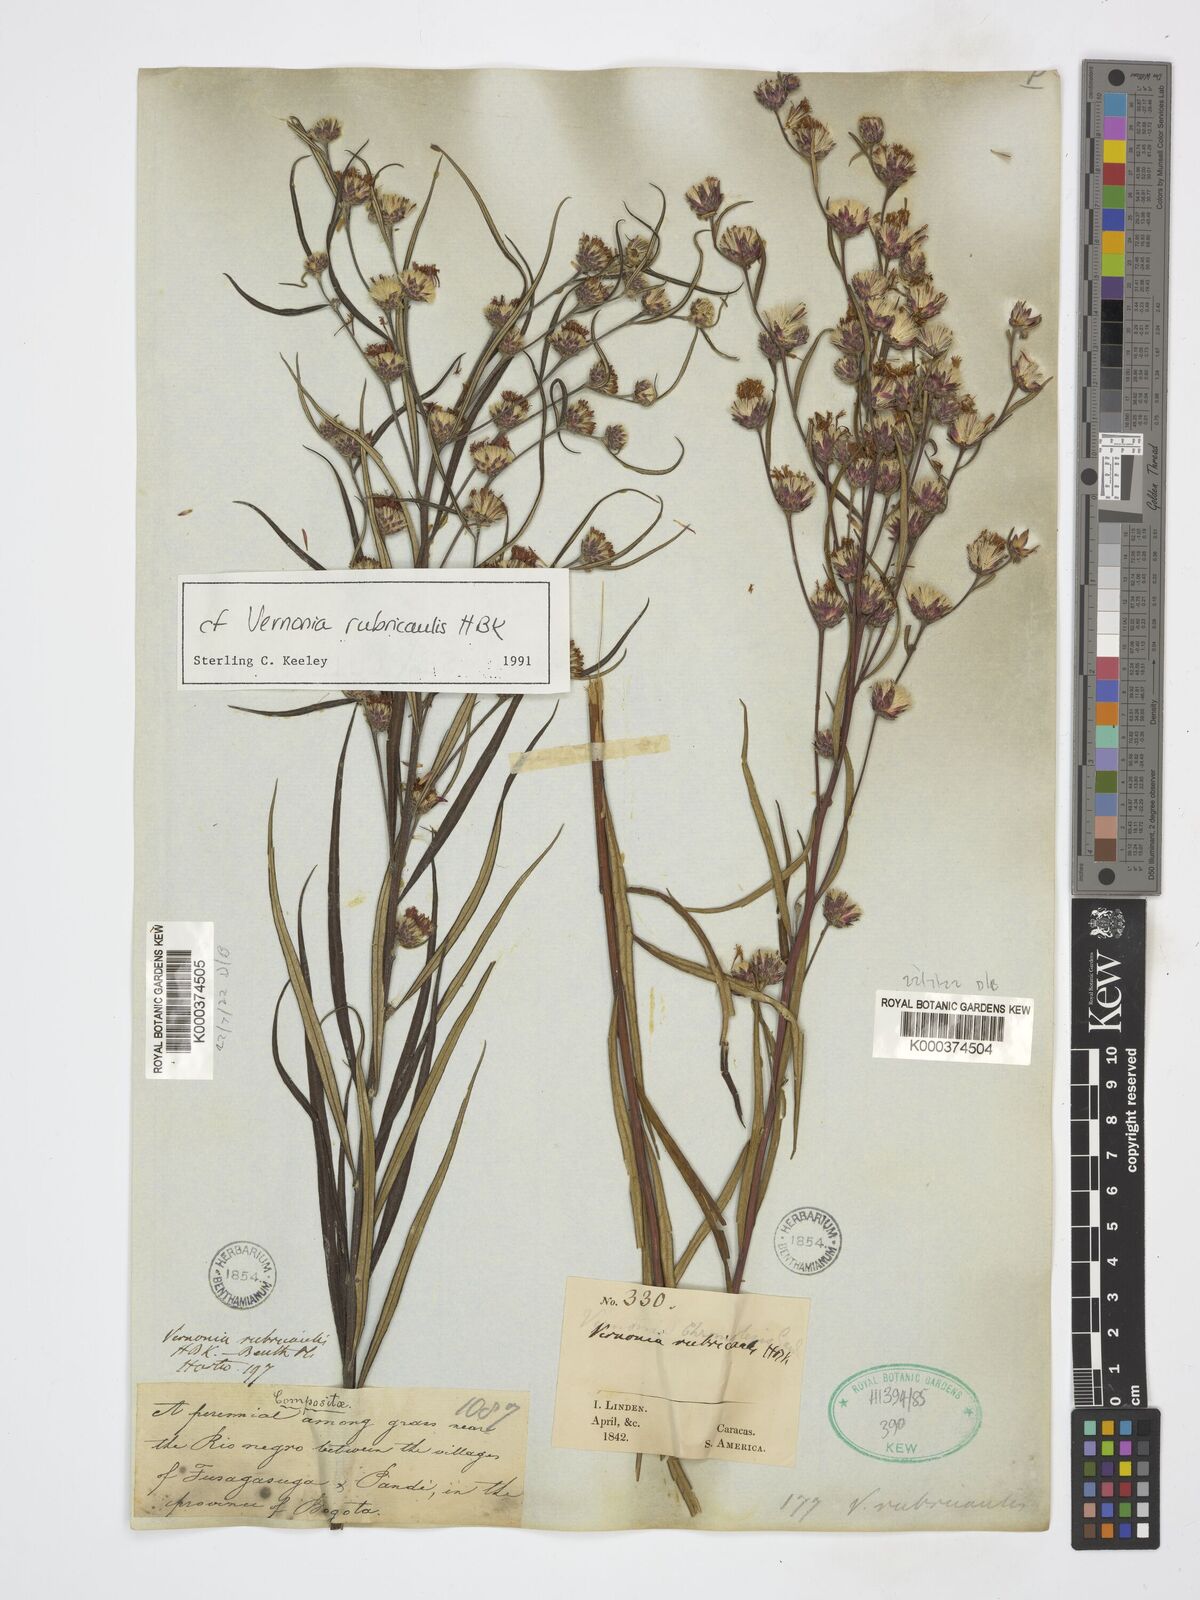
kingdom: Plantae
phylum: Tracheophyta
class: Magnoliopsida
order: Asterales
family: Asteraceae
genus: Lessingianthus
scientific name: Lessingianthus rubricaulis
